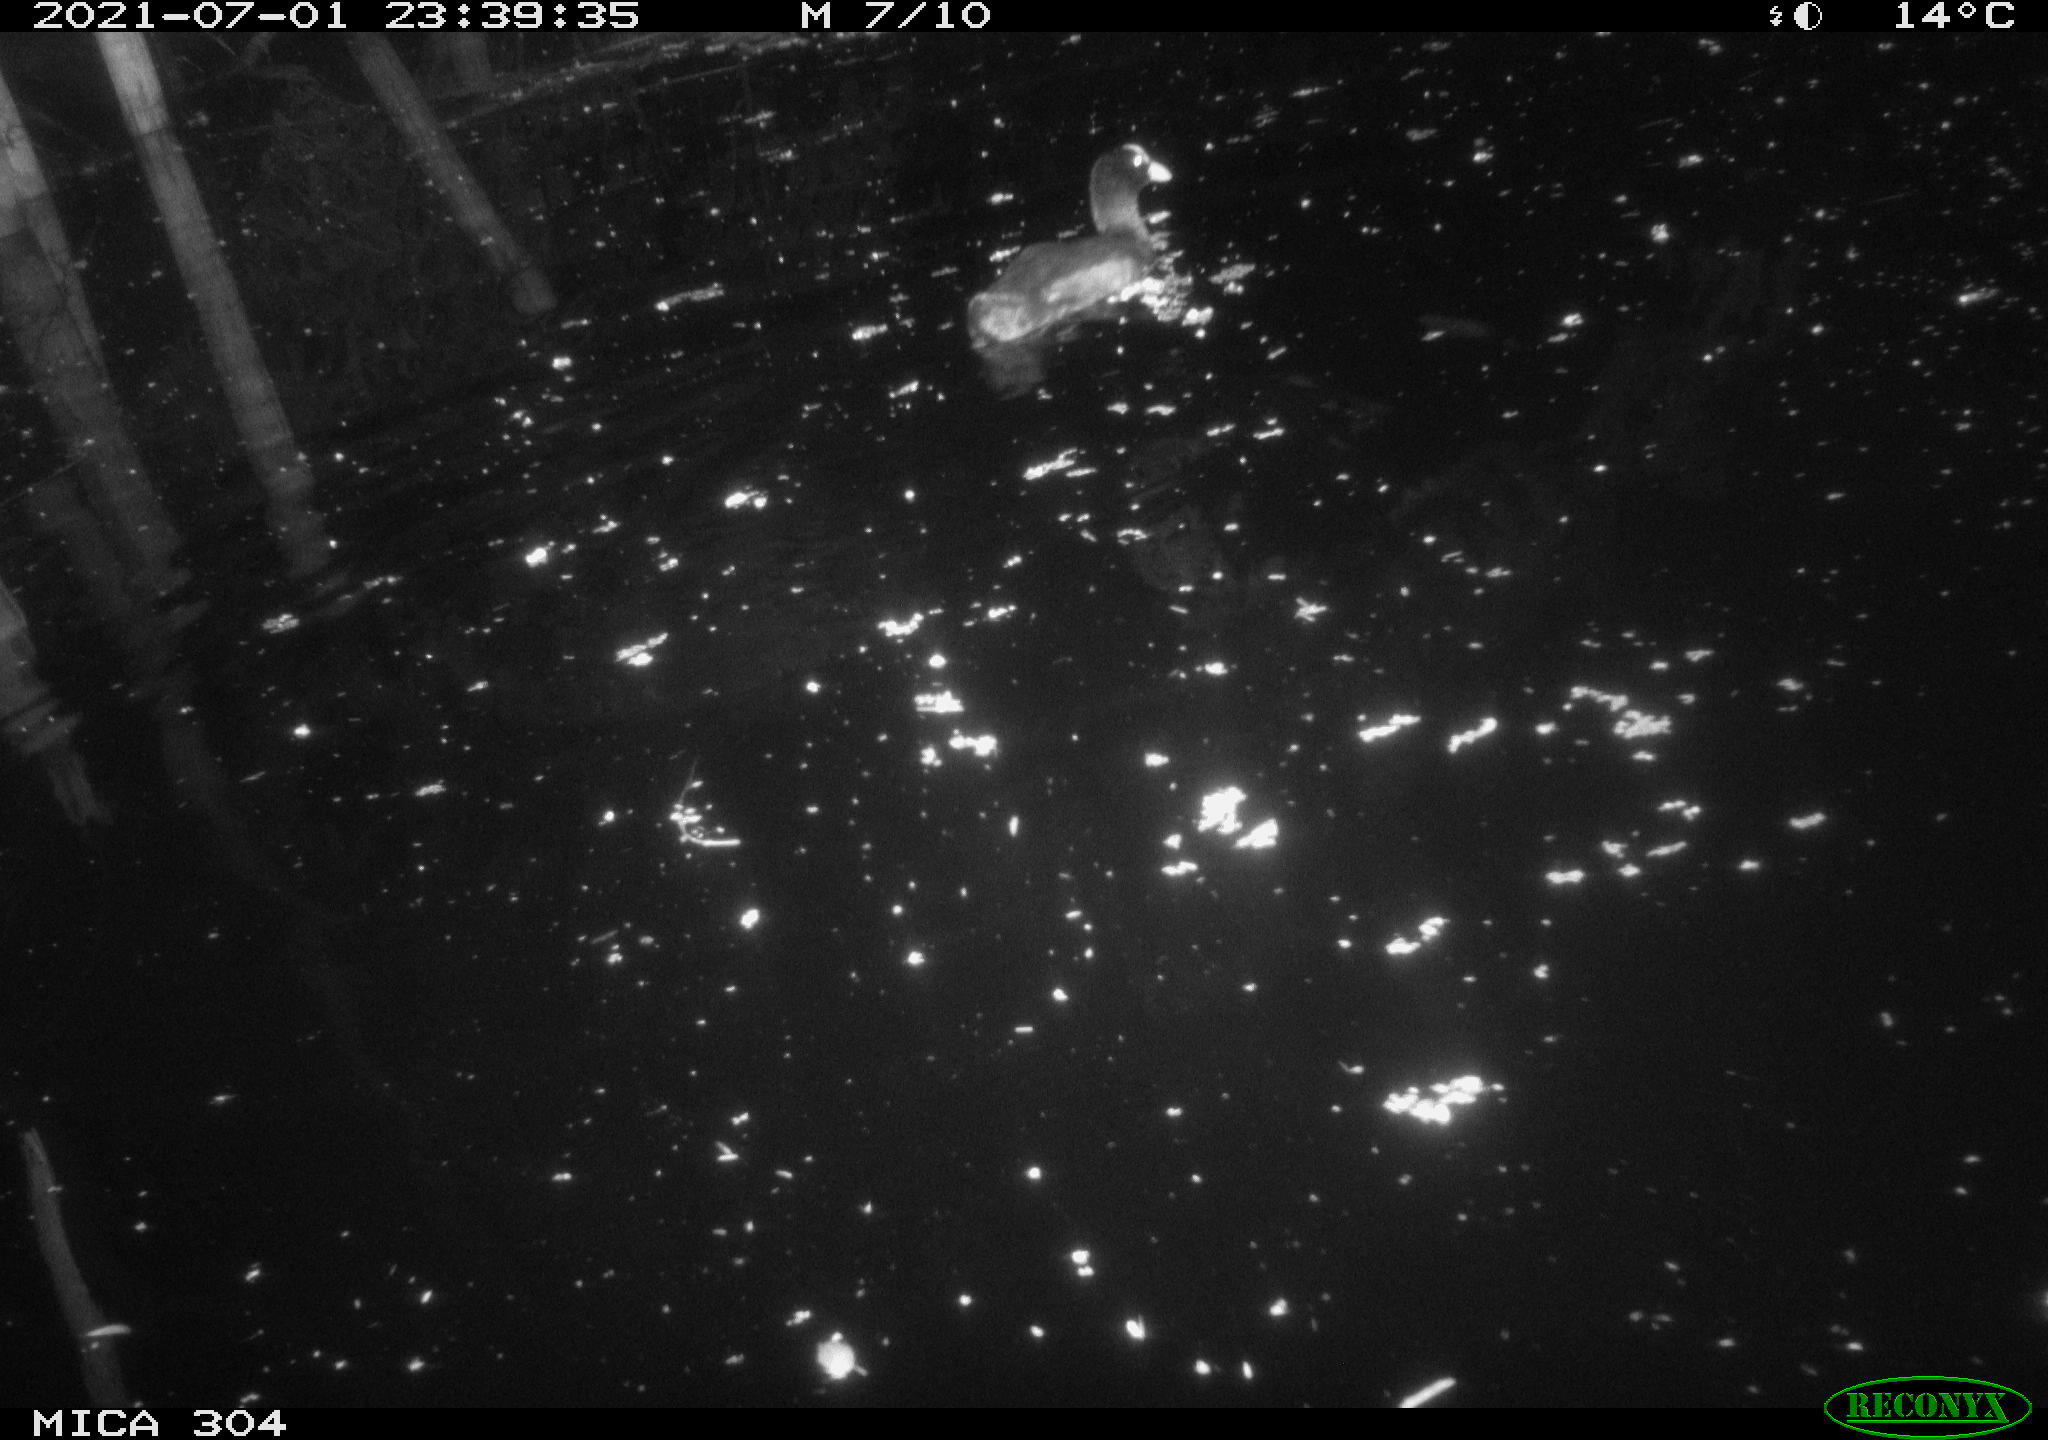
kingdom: Animalia
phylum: Chordata
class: Aves
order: Anseriformes
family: Anatidae
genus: Mareca
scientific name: Mareca strepera
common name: Gadwall
